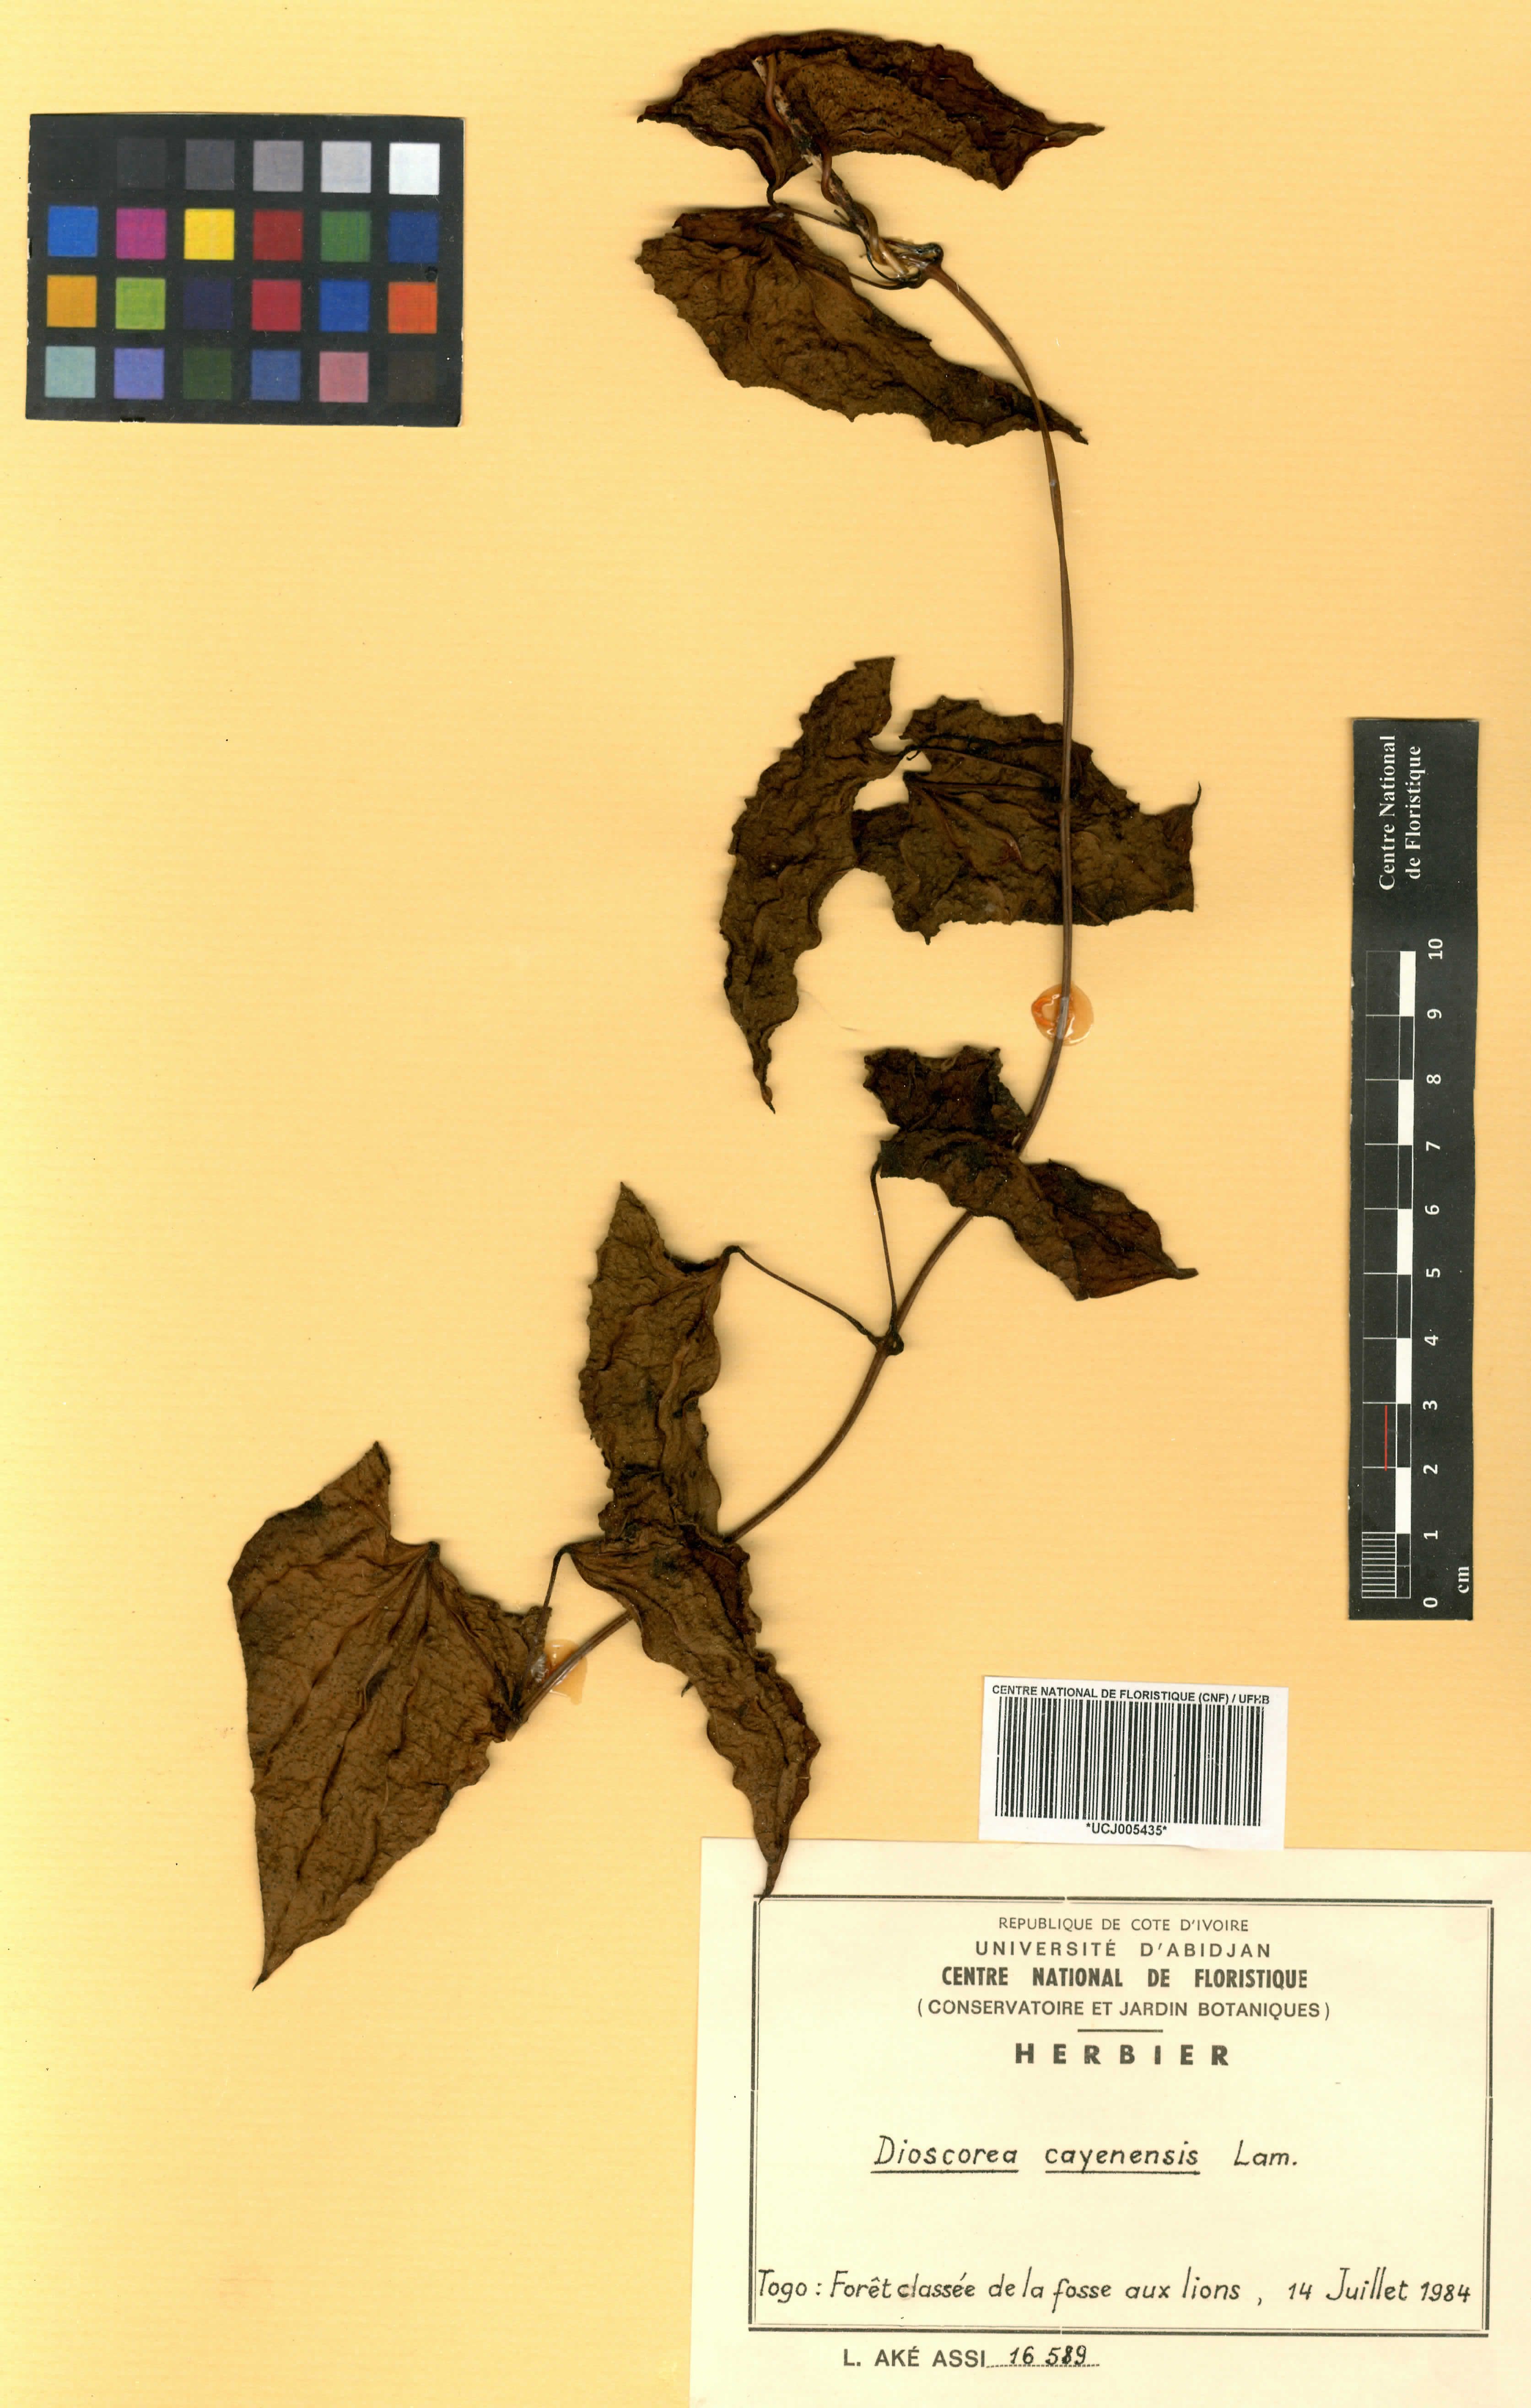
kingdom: Plantae
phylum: Tracheophyta
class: Liliopsida
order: Dioscoreales
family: Dioscoreaceae
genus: Dioscorea
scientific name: Dioscorea cayenensis
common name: Attoto yam
